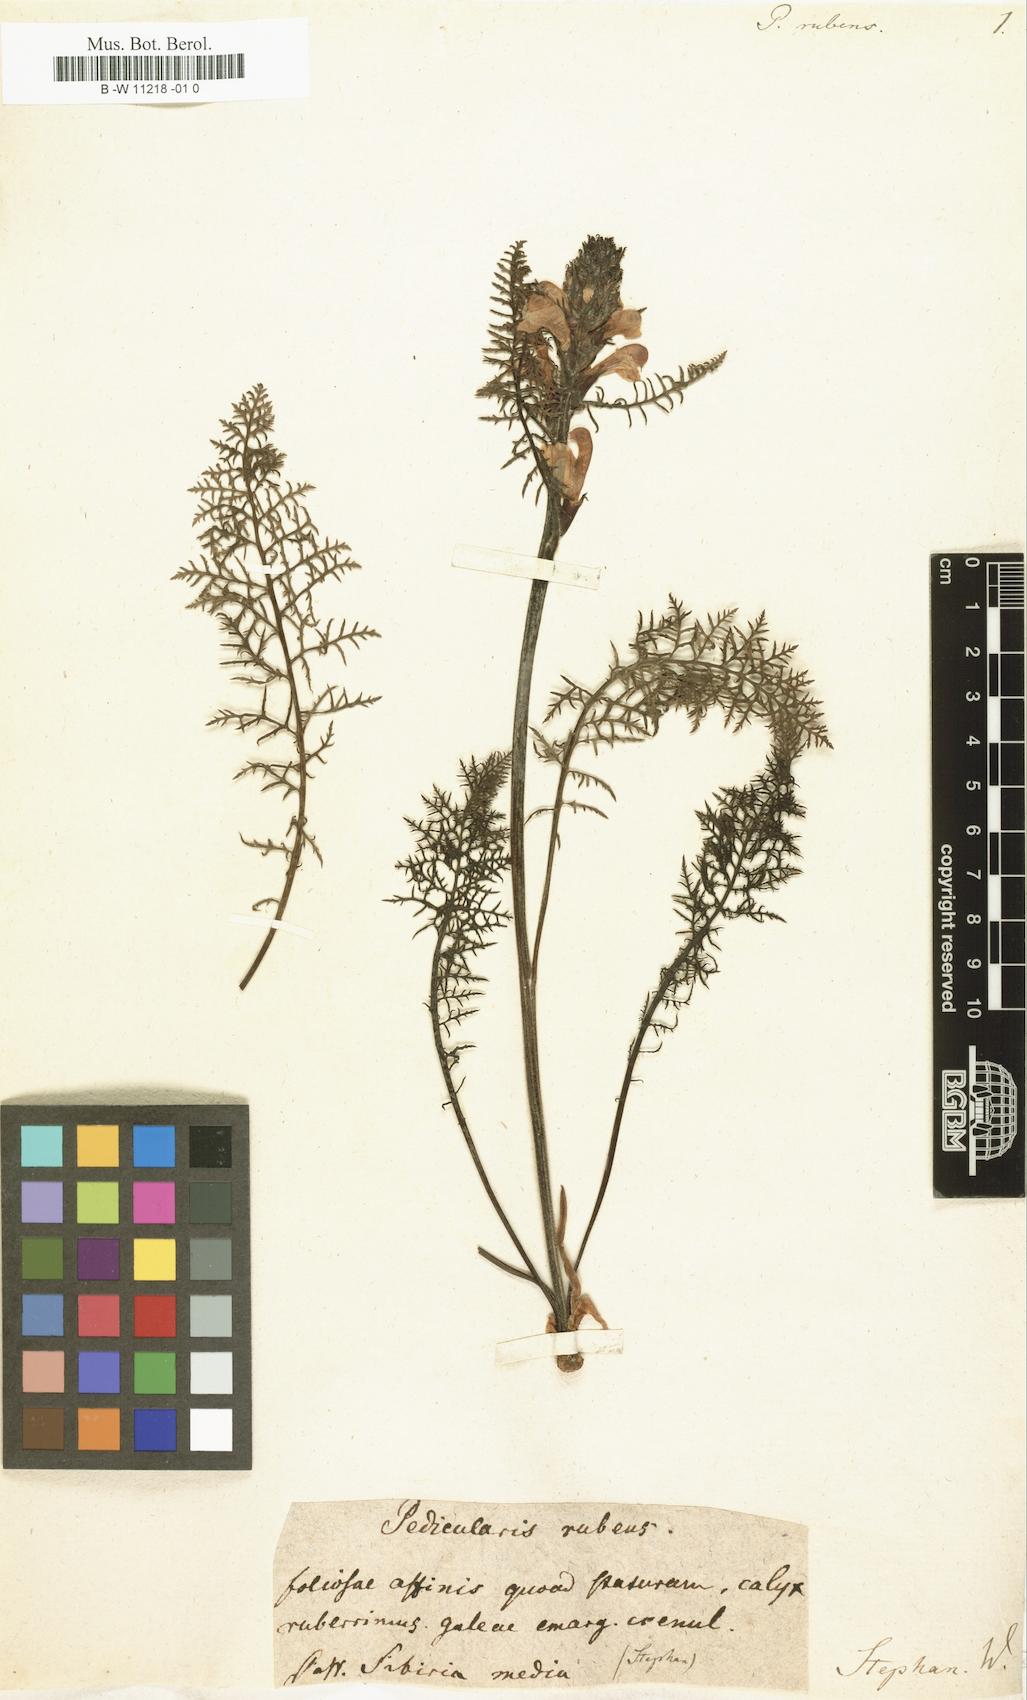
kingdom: Plantae
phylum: Tracheophyta
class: Magnoliopsida
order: Lamiales
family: Orobanchaceae
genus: Pedicularis
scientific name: Pedicularis rubens
